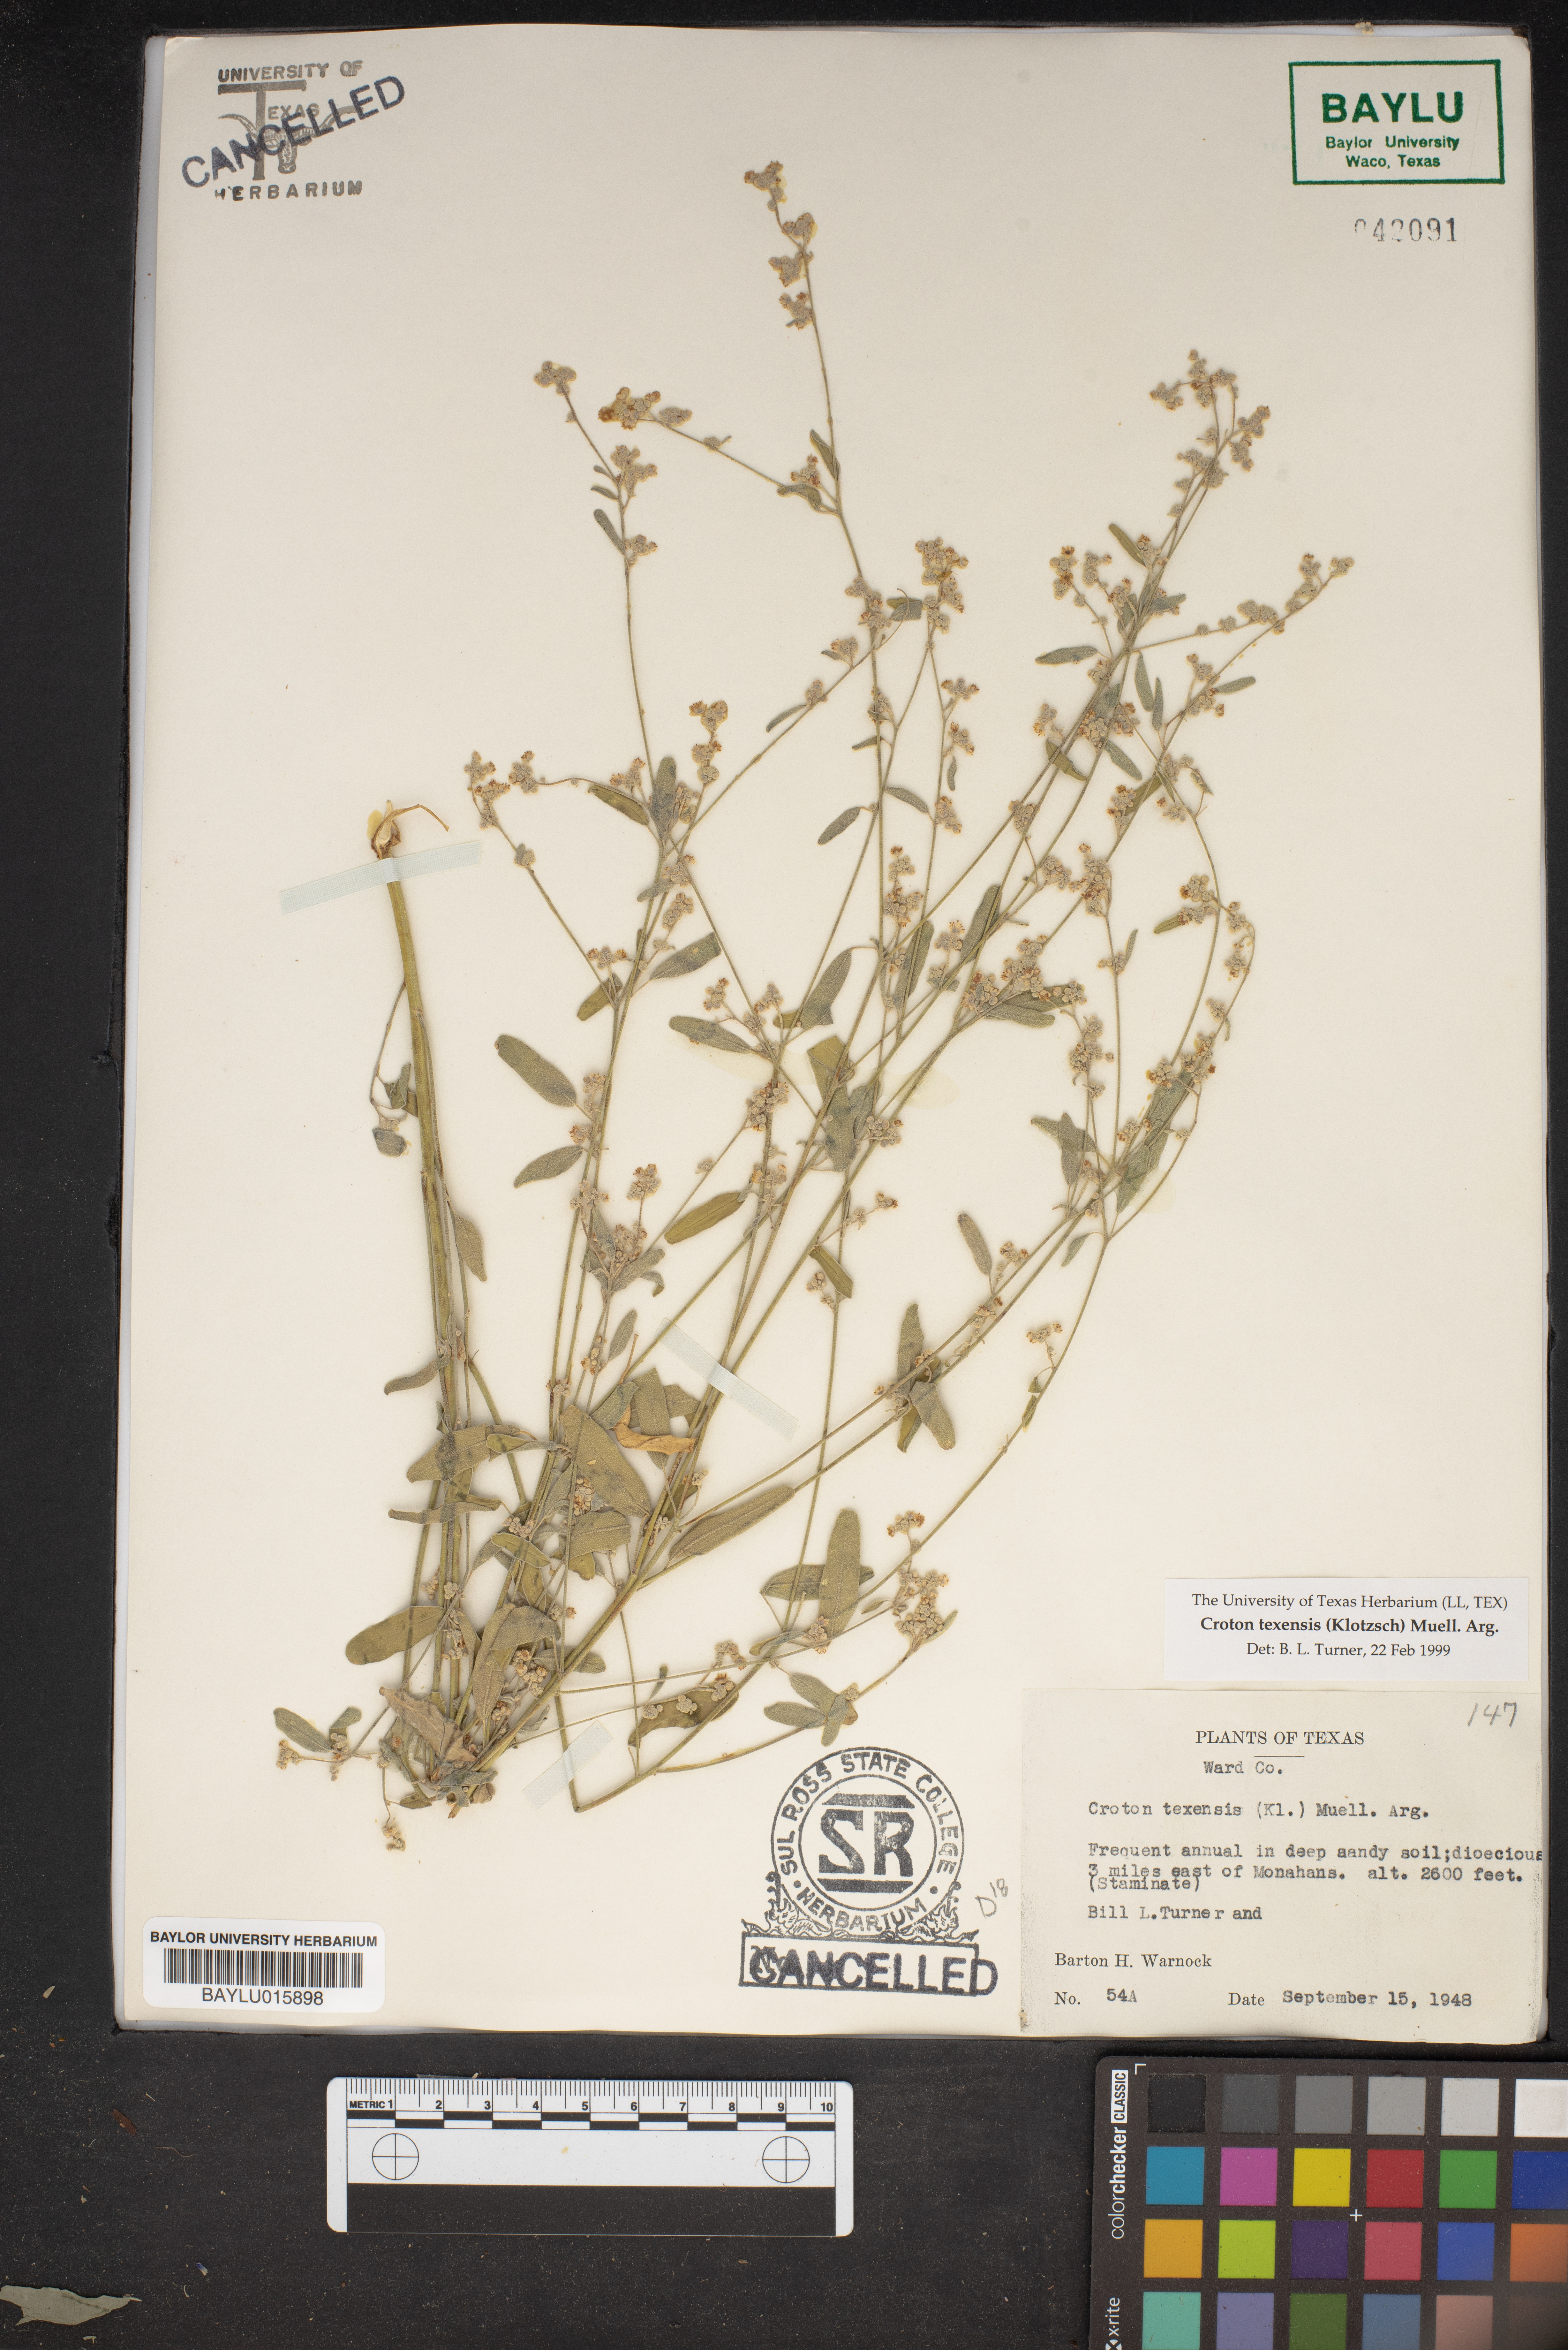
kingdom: Plantae
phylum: Tracheophyta
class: Magnoliopsida
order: Malpighiales
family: Euphorbiaceae
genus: Croton
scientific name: Croton texensis
